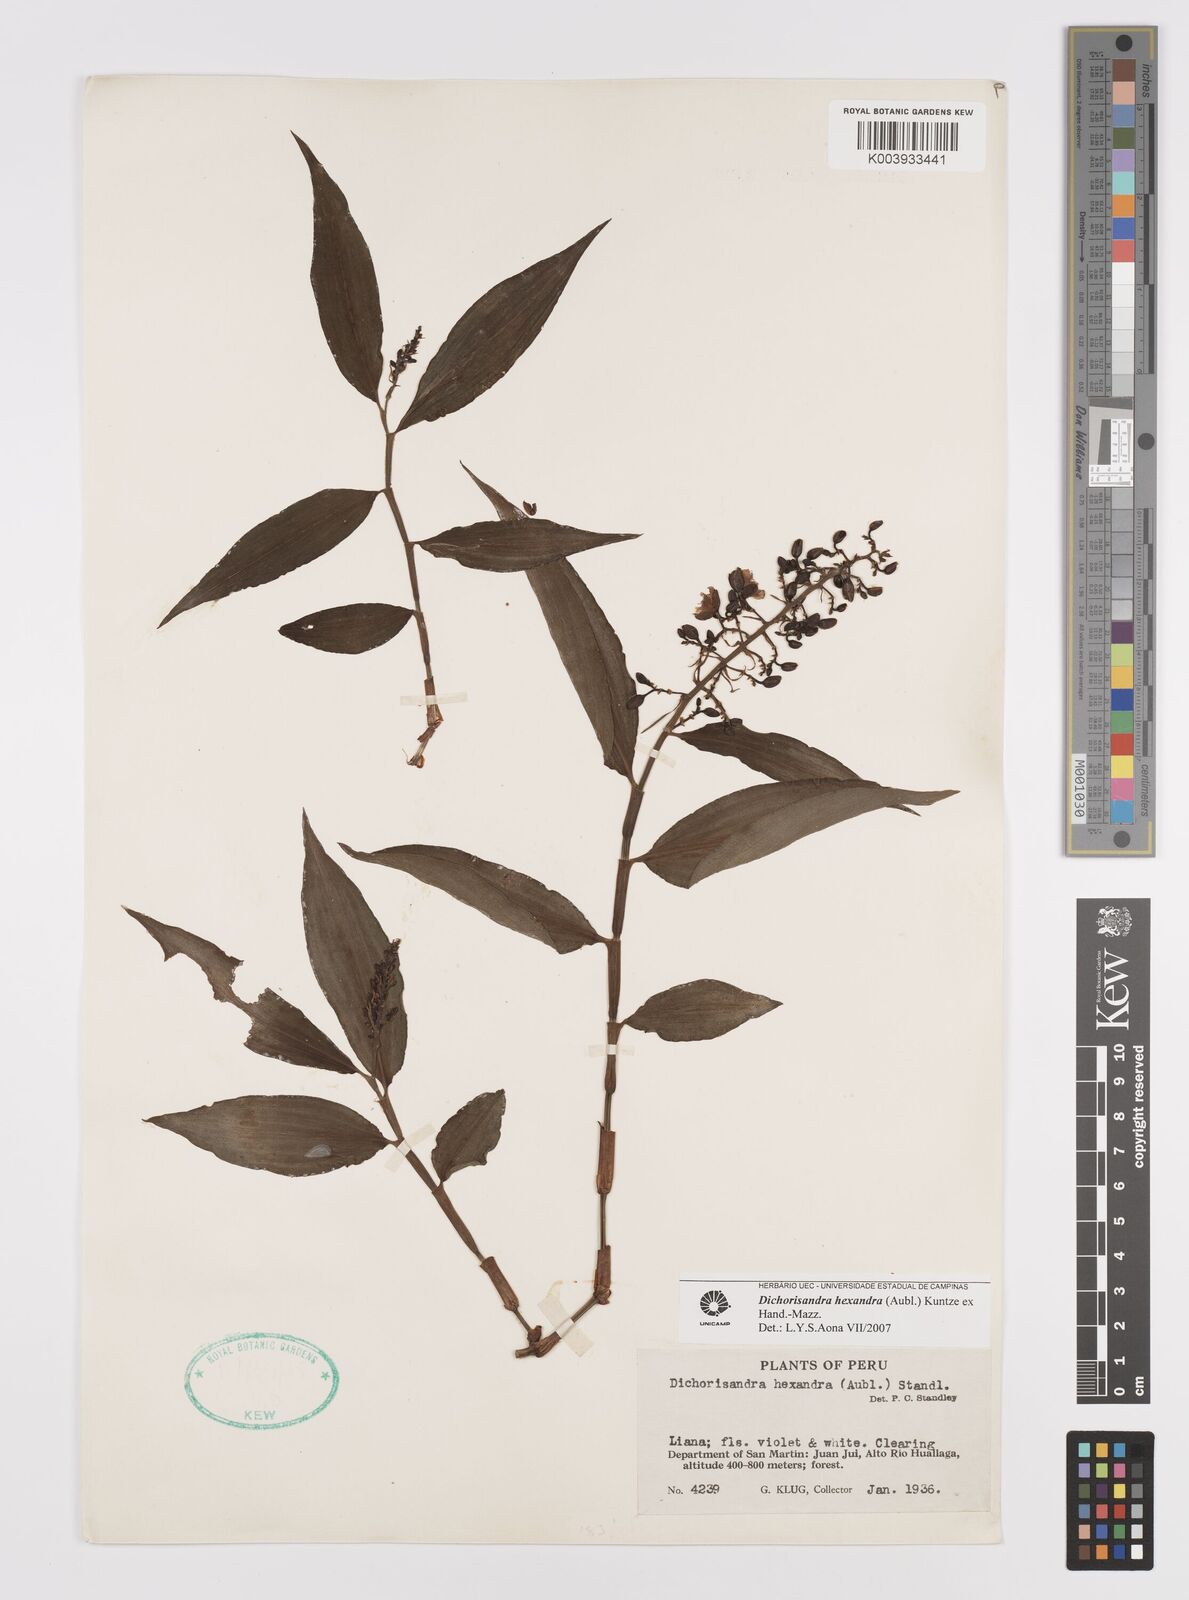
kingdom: Plantae
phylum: Tracheophyta
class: Liliopsida
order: Commelinales
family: Commelinaceae
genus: Dichorisandra
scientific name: Dichorisandra hexandra
